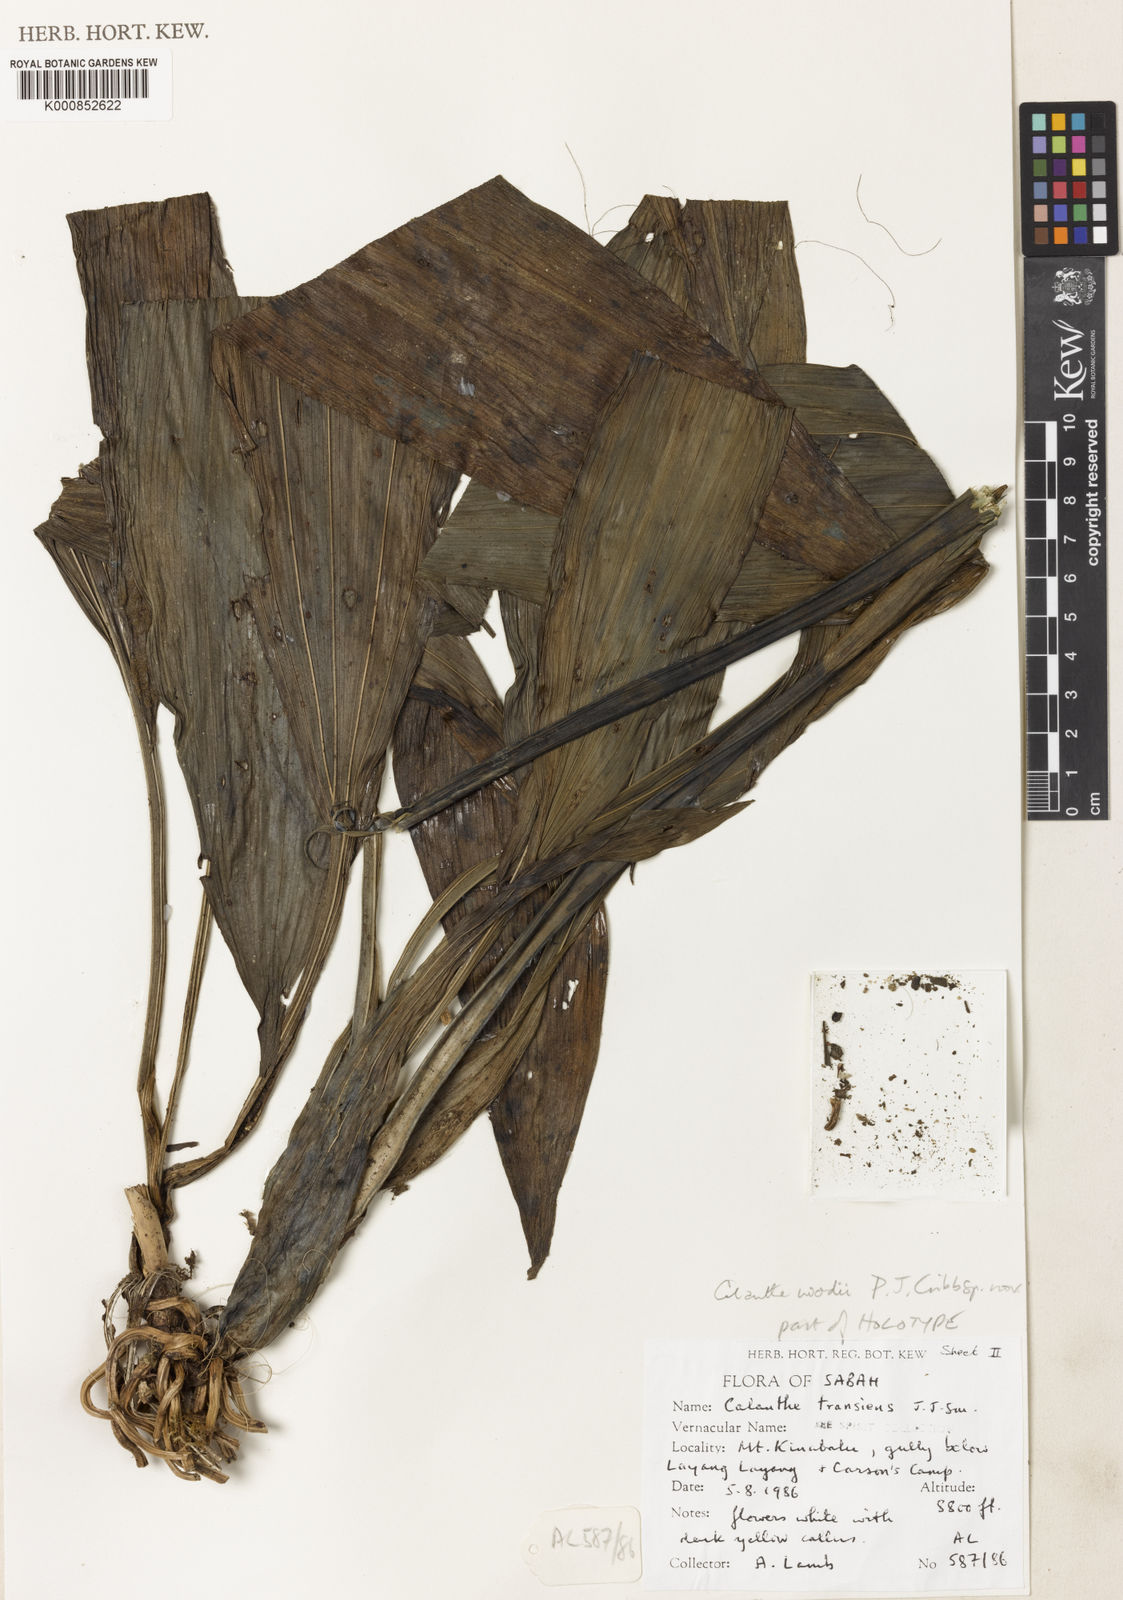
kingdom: Plantae
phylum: Tracheophyta
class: Liliopsida
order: Asparagales
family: Orchidaceae
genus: Calanthe
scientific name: Calanthe woodii
